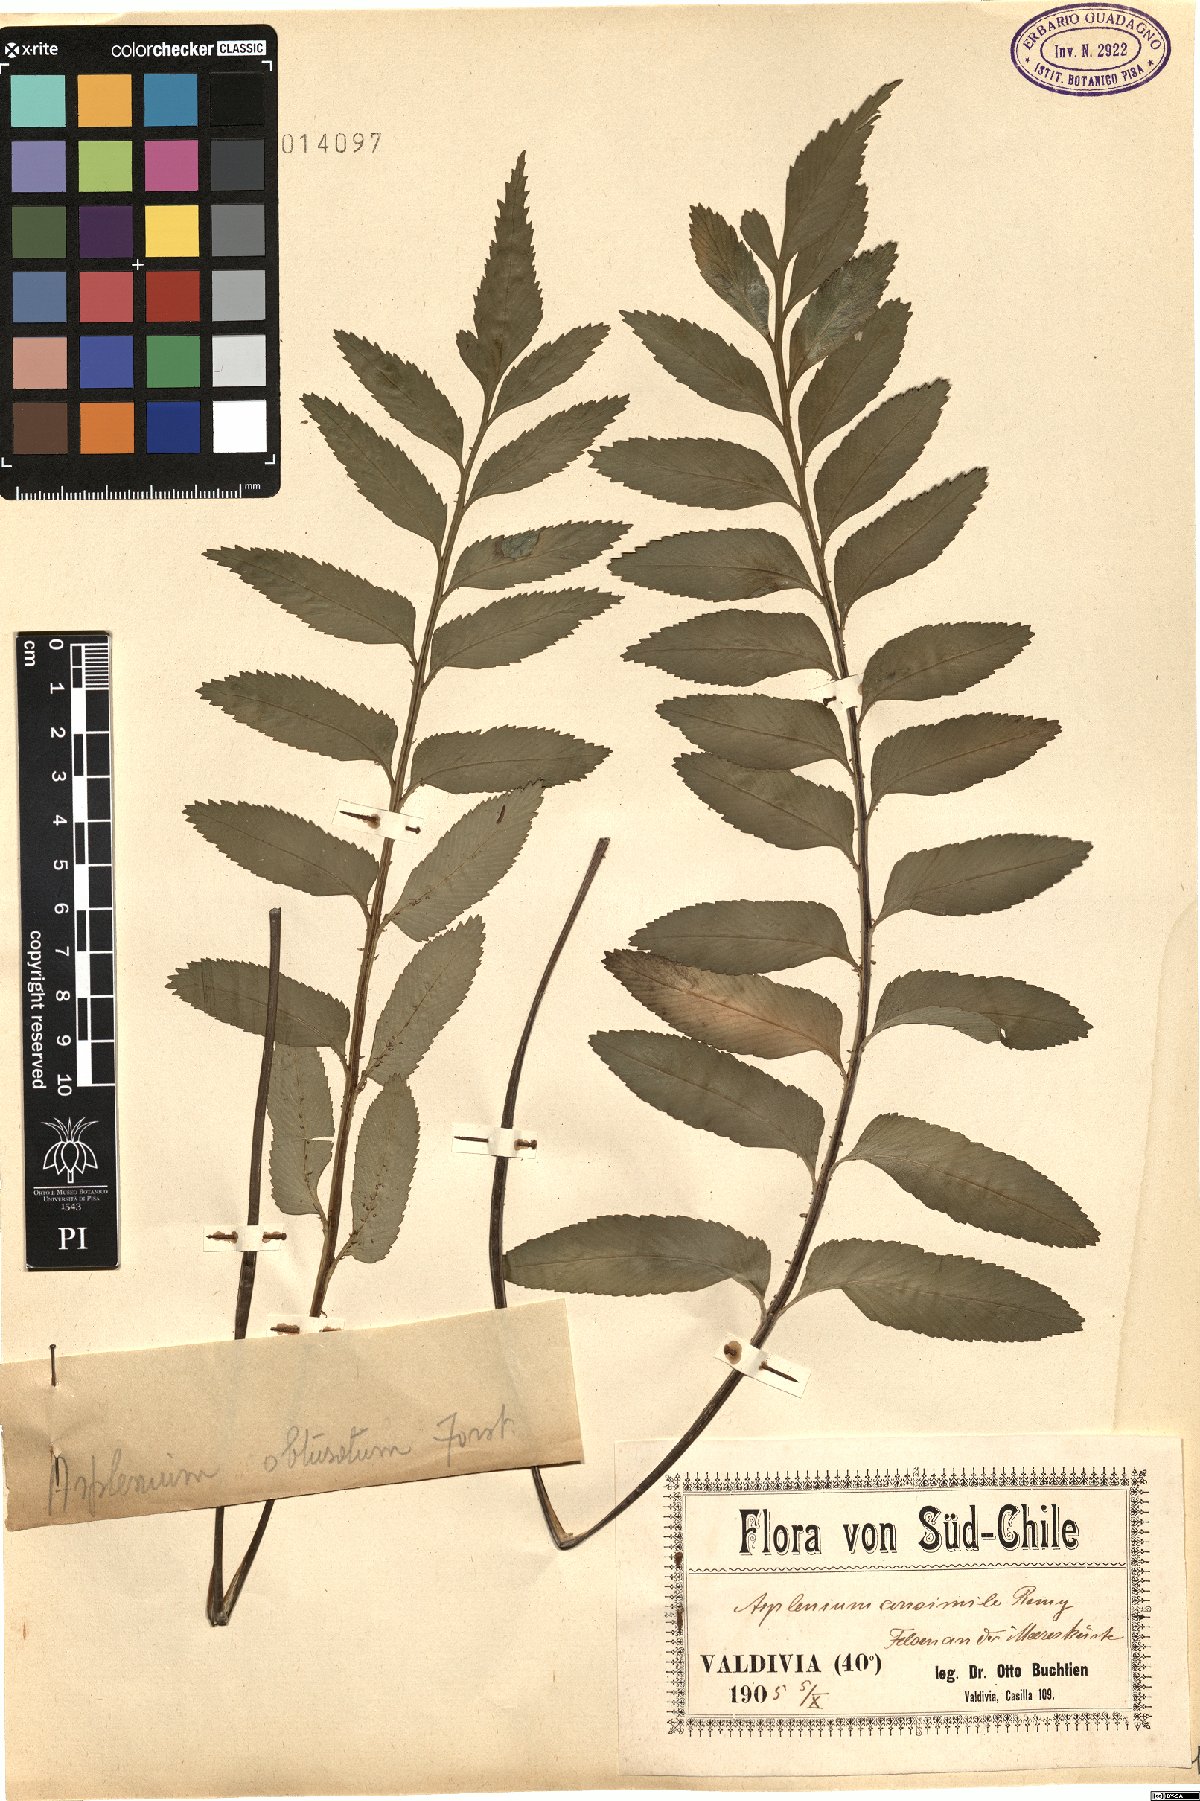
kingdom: Plantae
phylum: Tracheophyta
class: Polypodiopsida
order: Polypodiales
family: Aspleniaceae
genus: Asplenium
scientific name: Asplenium sphenoides
